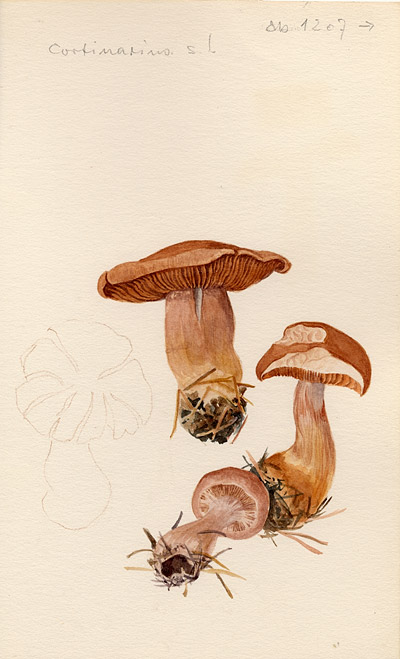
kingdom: Fungi
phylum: Basidiomycota
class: Agaricomycetes
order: Agaricales
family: Cortinariaceae
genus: Cortinarius
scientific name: Cortinarius
